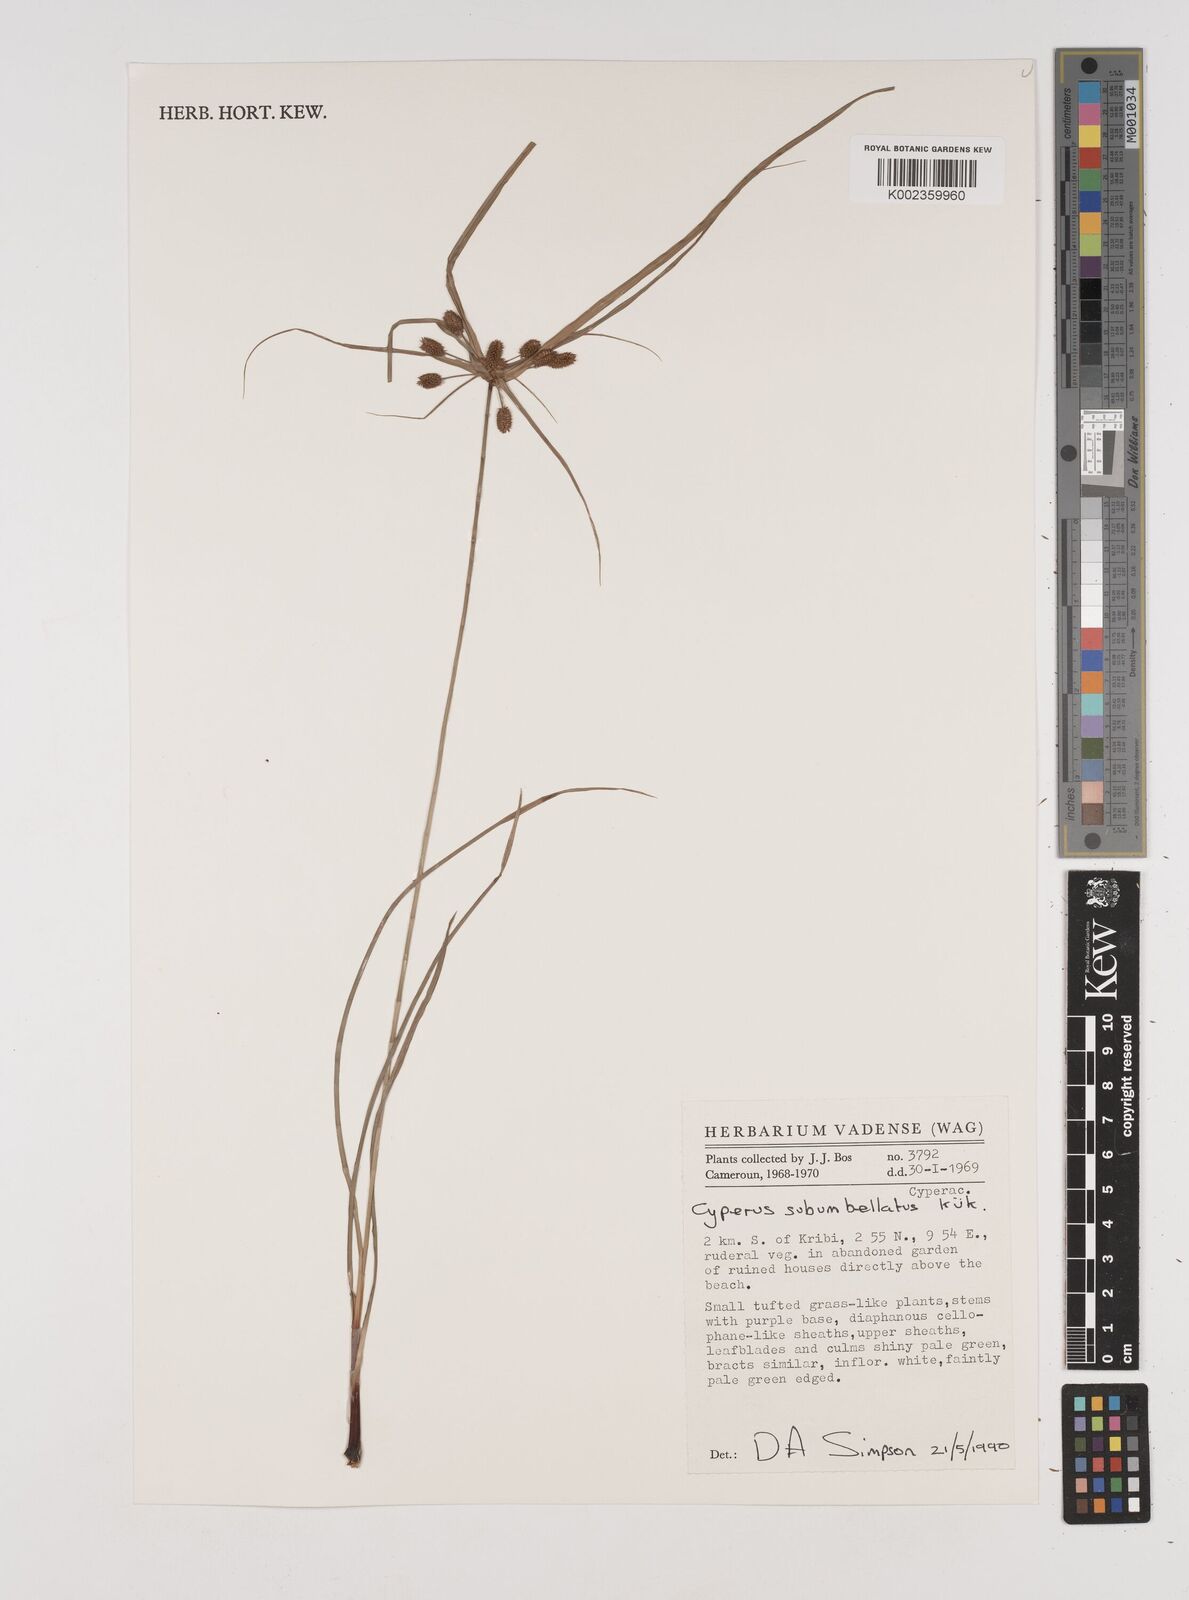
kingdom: Plantae
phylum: Tracheophyta
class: Liliopsida
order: Poales
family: Cyperaceae
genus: Cyperus
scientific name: Cyperus cyperoides
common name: Pacific island flat sedge
